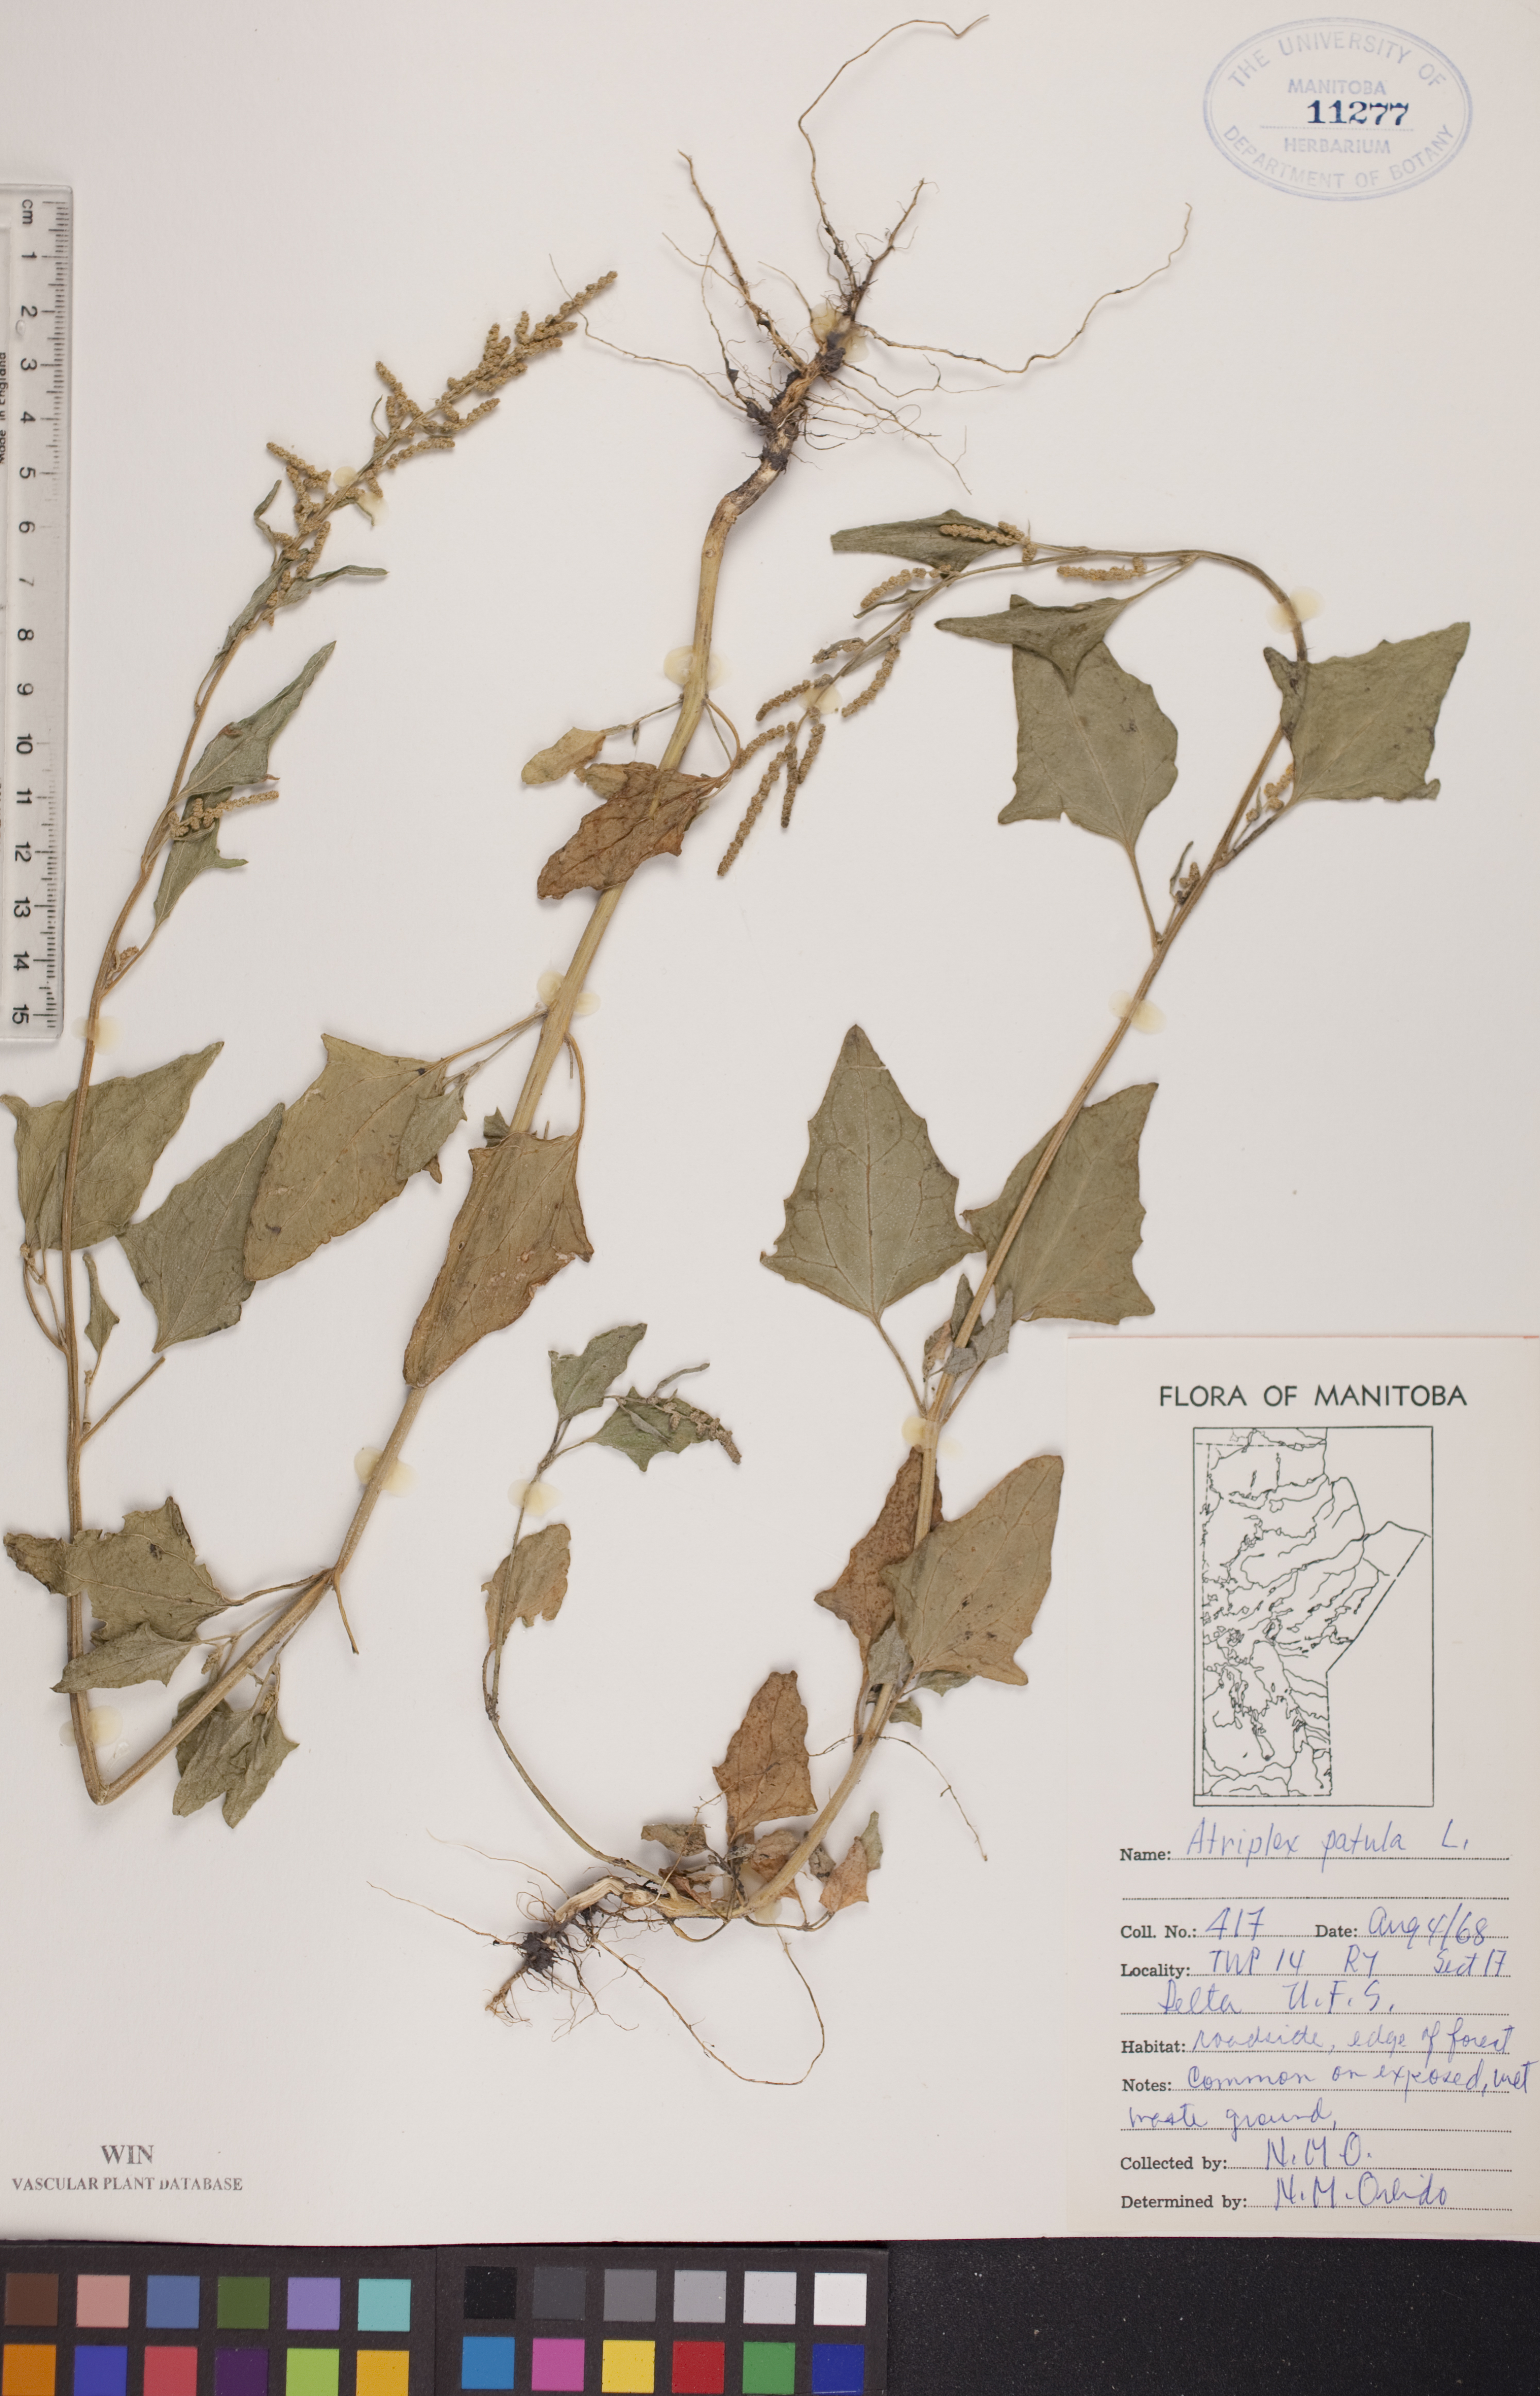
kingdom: Plantae
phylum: Tracheophyta
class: Magnoliopsida
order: Caryophyllales
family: Amaranthaceae
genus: Atriplex
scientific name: Atriplex patula
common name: Common orache
